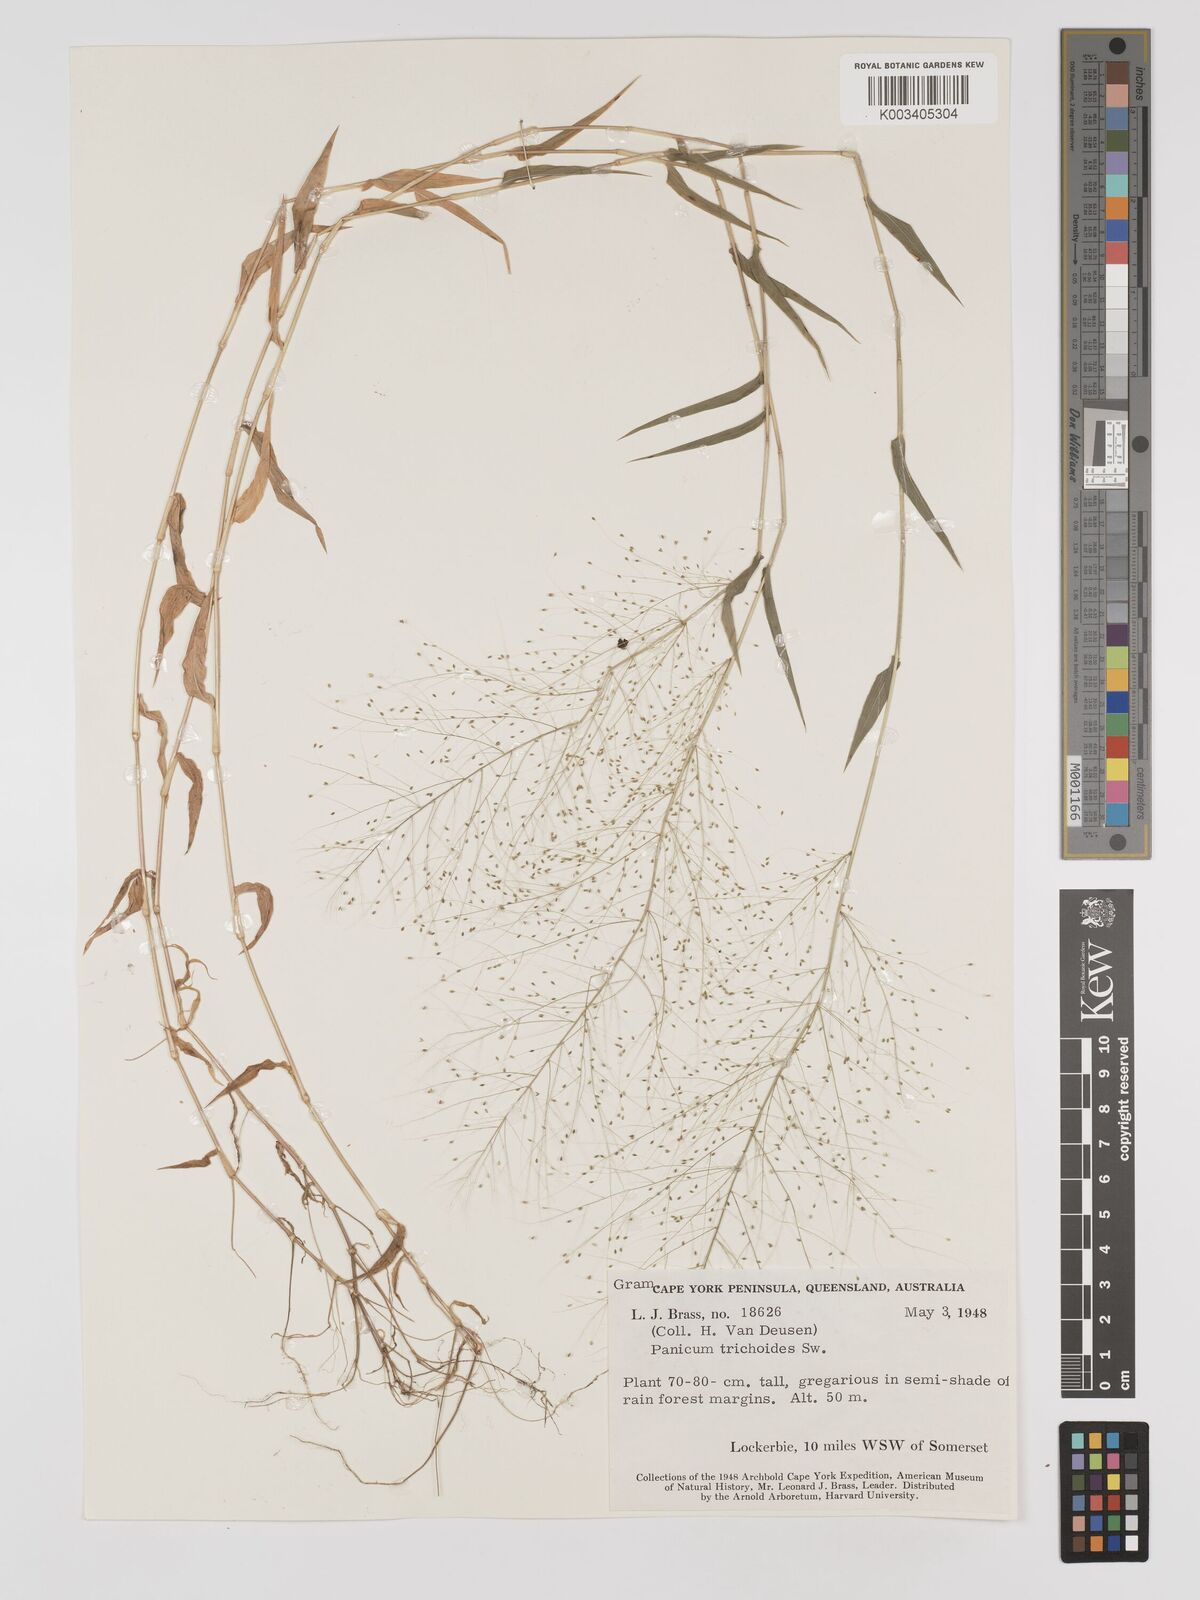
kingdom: Plantae
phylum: Tracheophyta
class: Liliopsida
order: Poales
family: Poaceae
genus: Panicum
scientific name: Panicum trichoides
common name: Tickle grass
